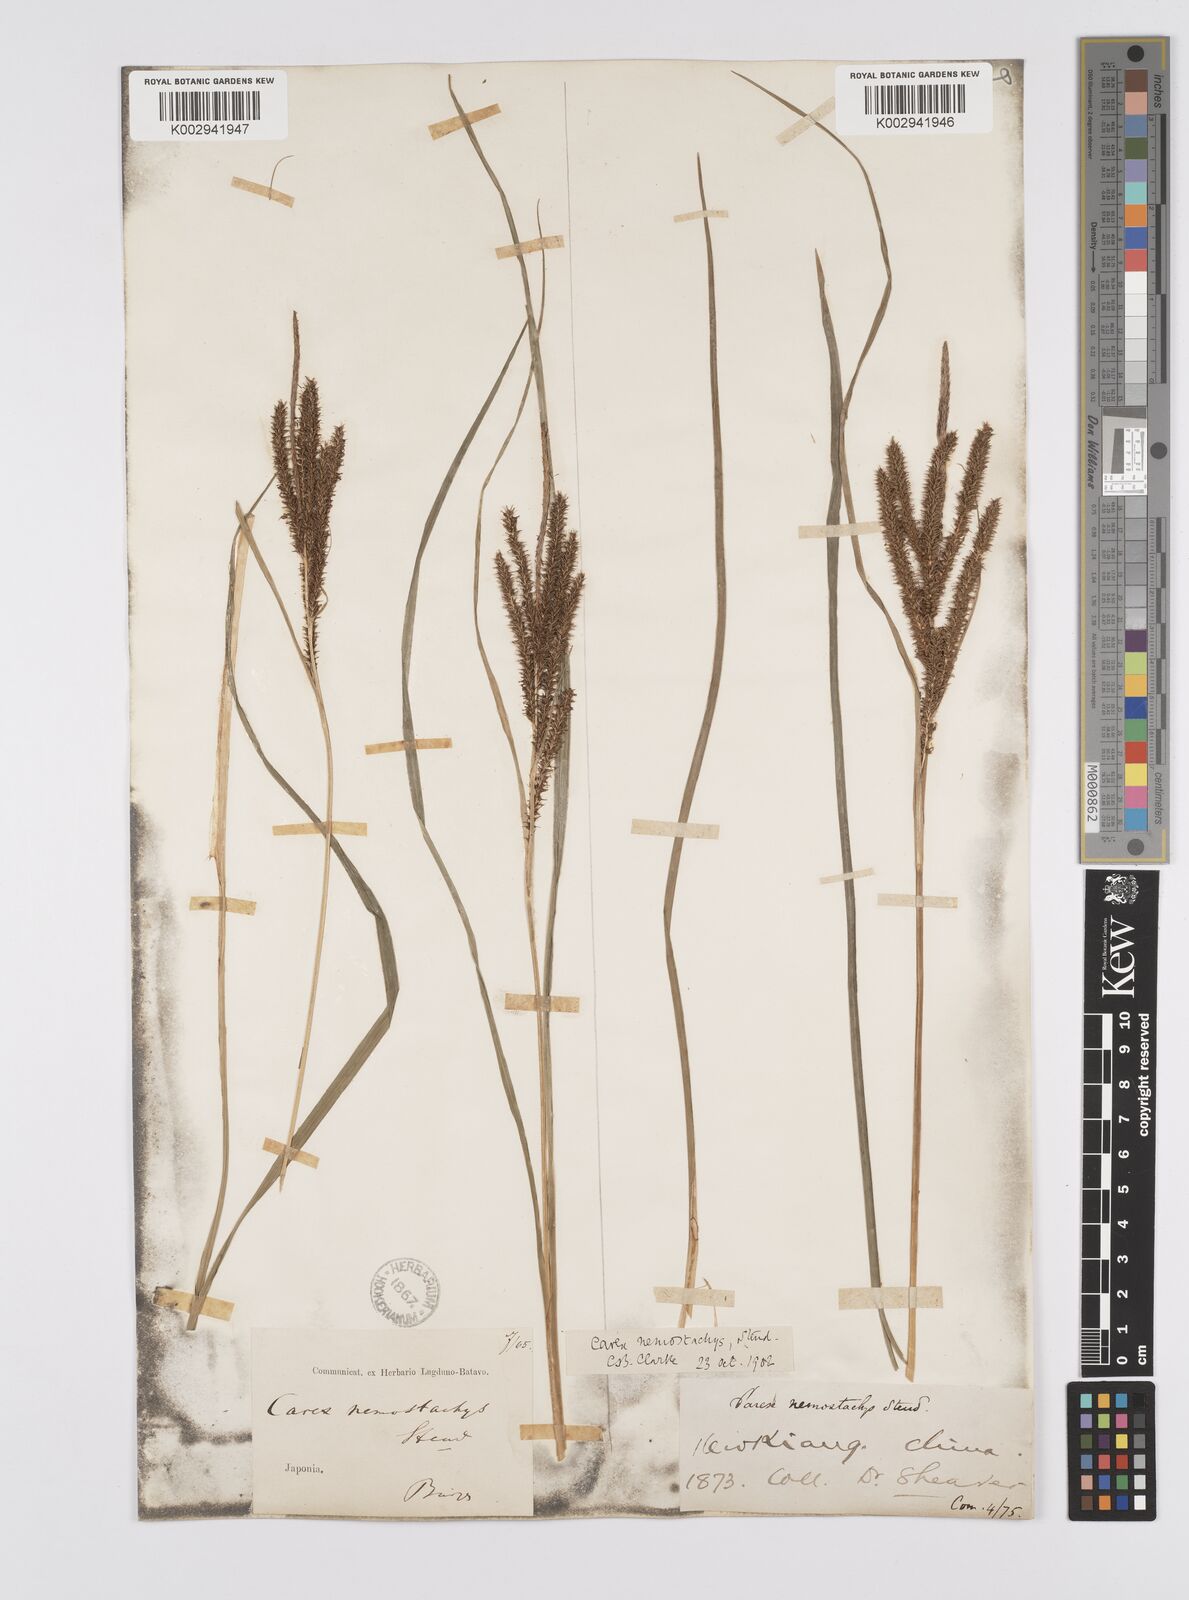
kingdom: Plantae
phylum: Tracheophyta
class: Liliopsida
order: Poales
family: Cyperaceae
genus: Carex
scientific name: Carex nemostachys
